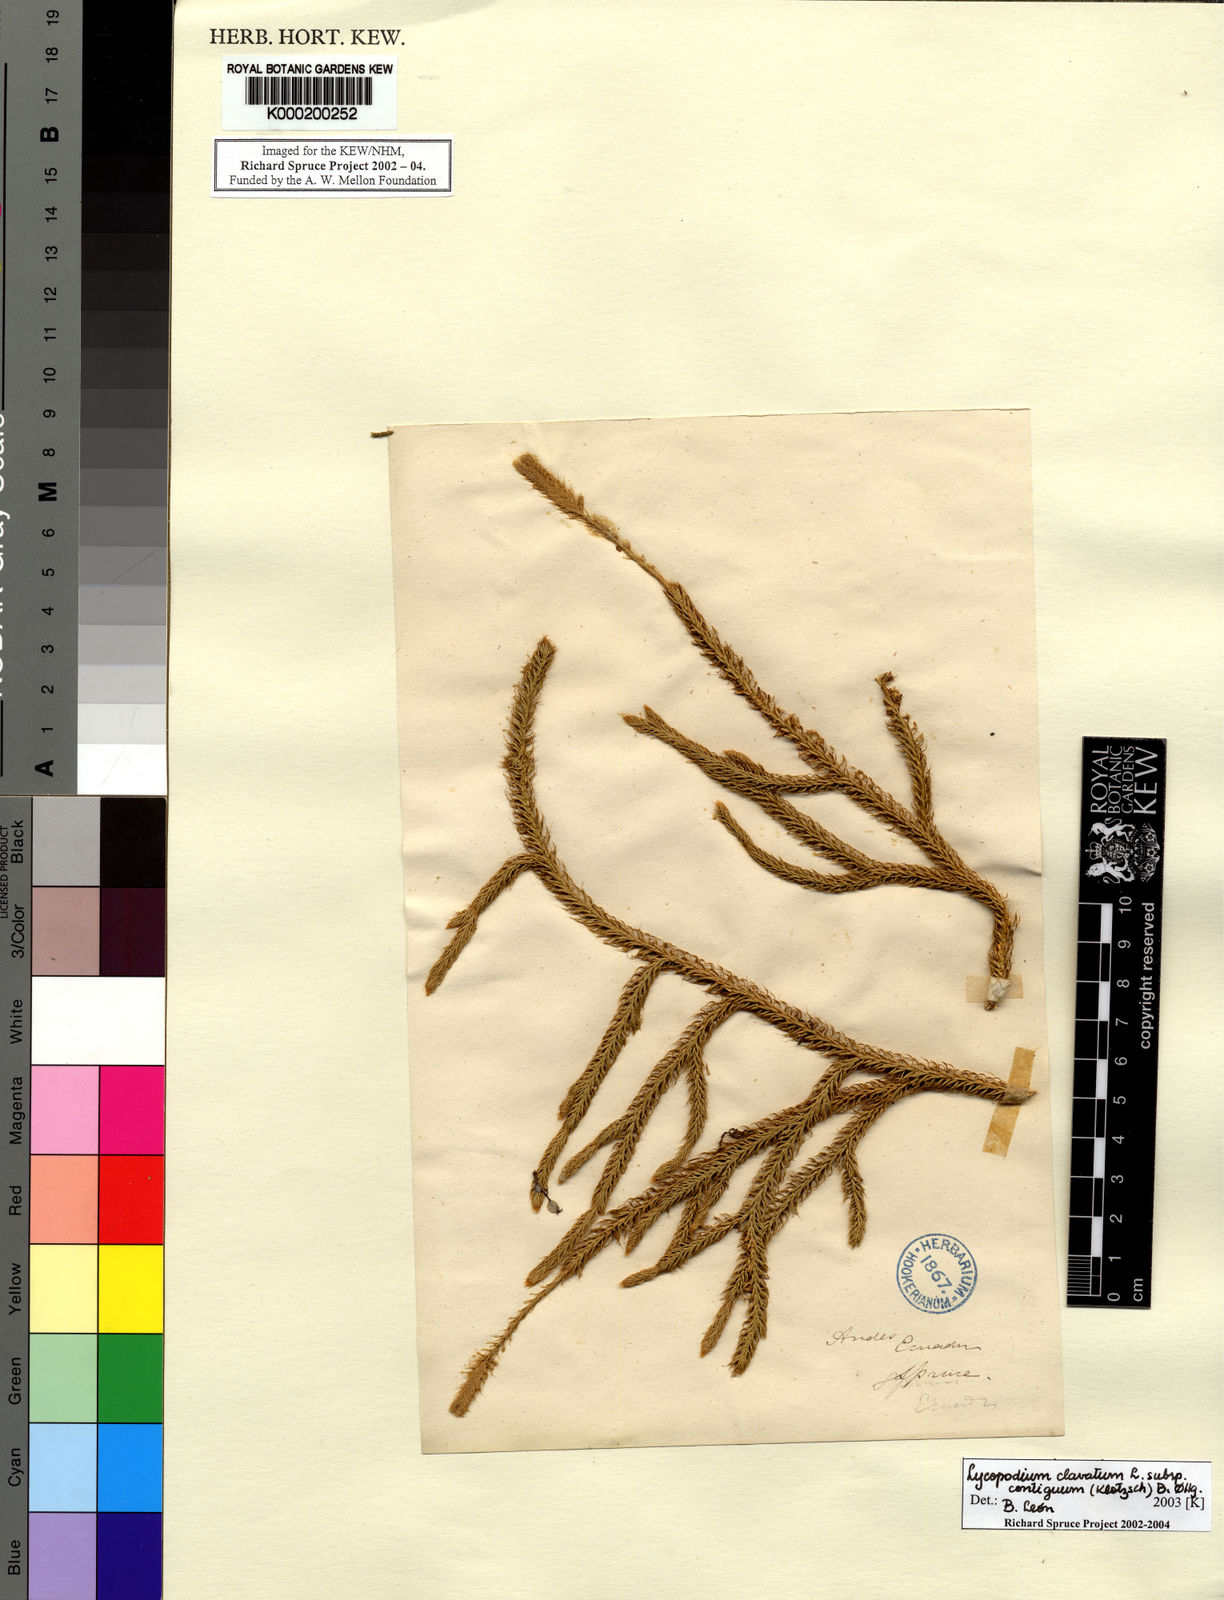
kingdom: Plantae
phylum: Tracheophyta
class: Lycopodiopsida
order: Lycopodiales
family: Lycopodiaceae
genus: Lycopodium
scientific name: Lycopodium clavatum
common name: Stag's-horn clubmoss
